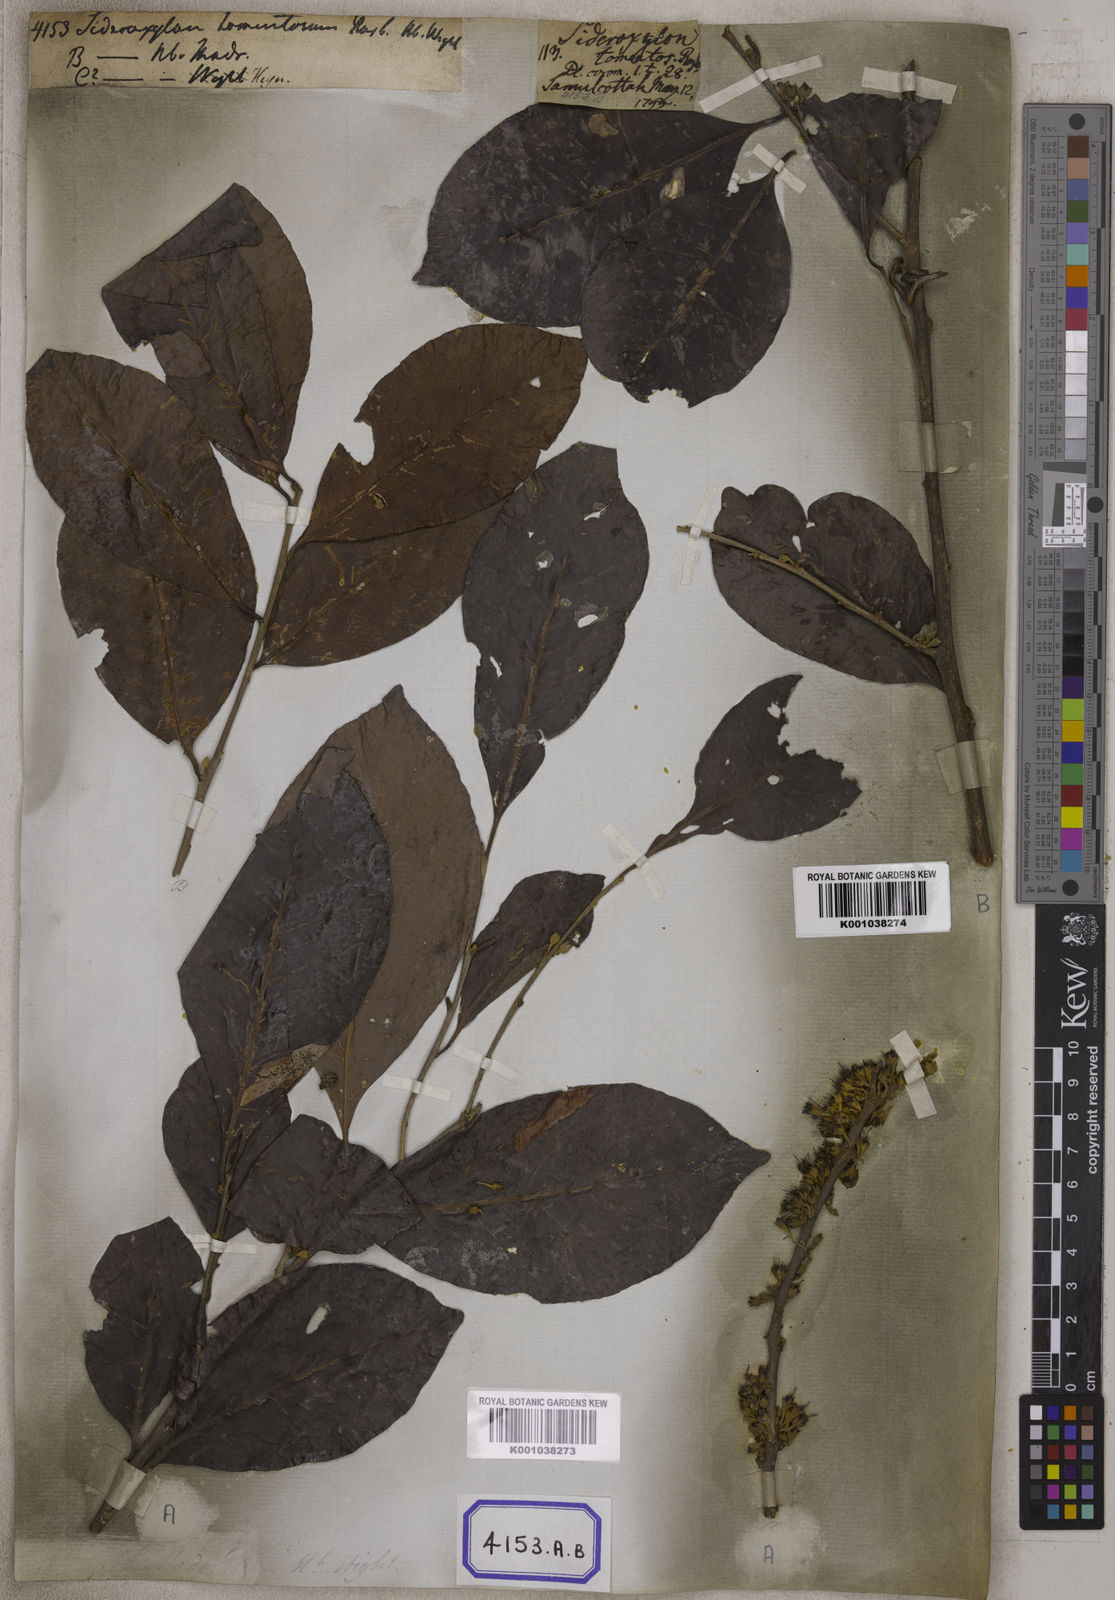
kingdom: Plantae
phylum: Tracheophyta
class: Magnoliopsida
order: Ericales
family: Sapotaceae
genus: Xantolis
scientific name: Xantolis tomentosa
